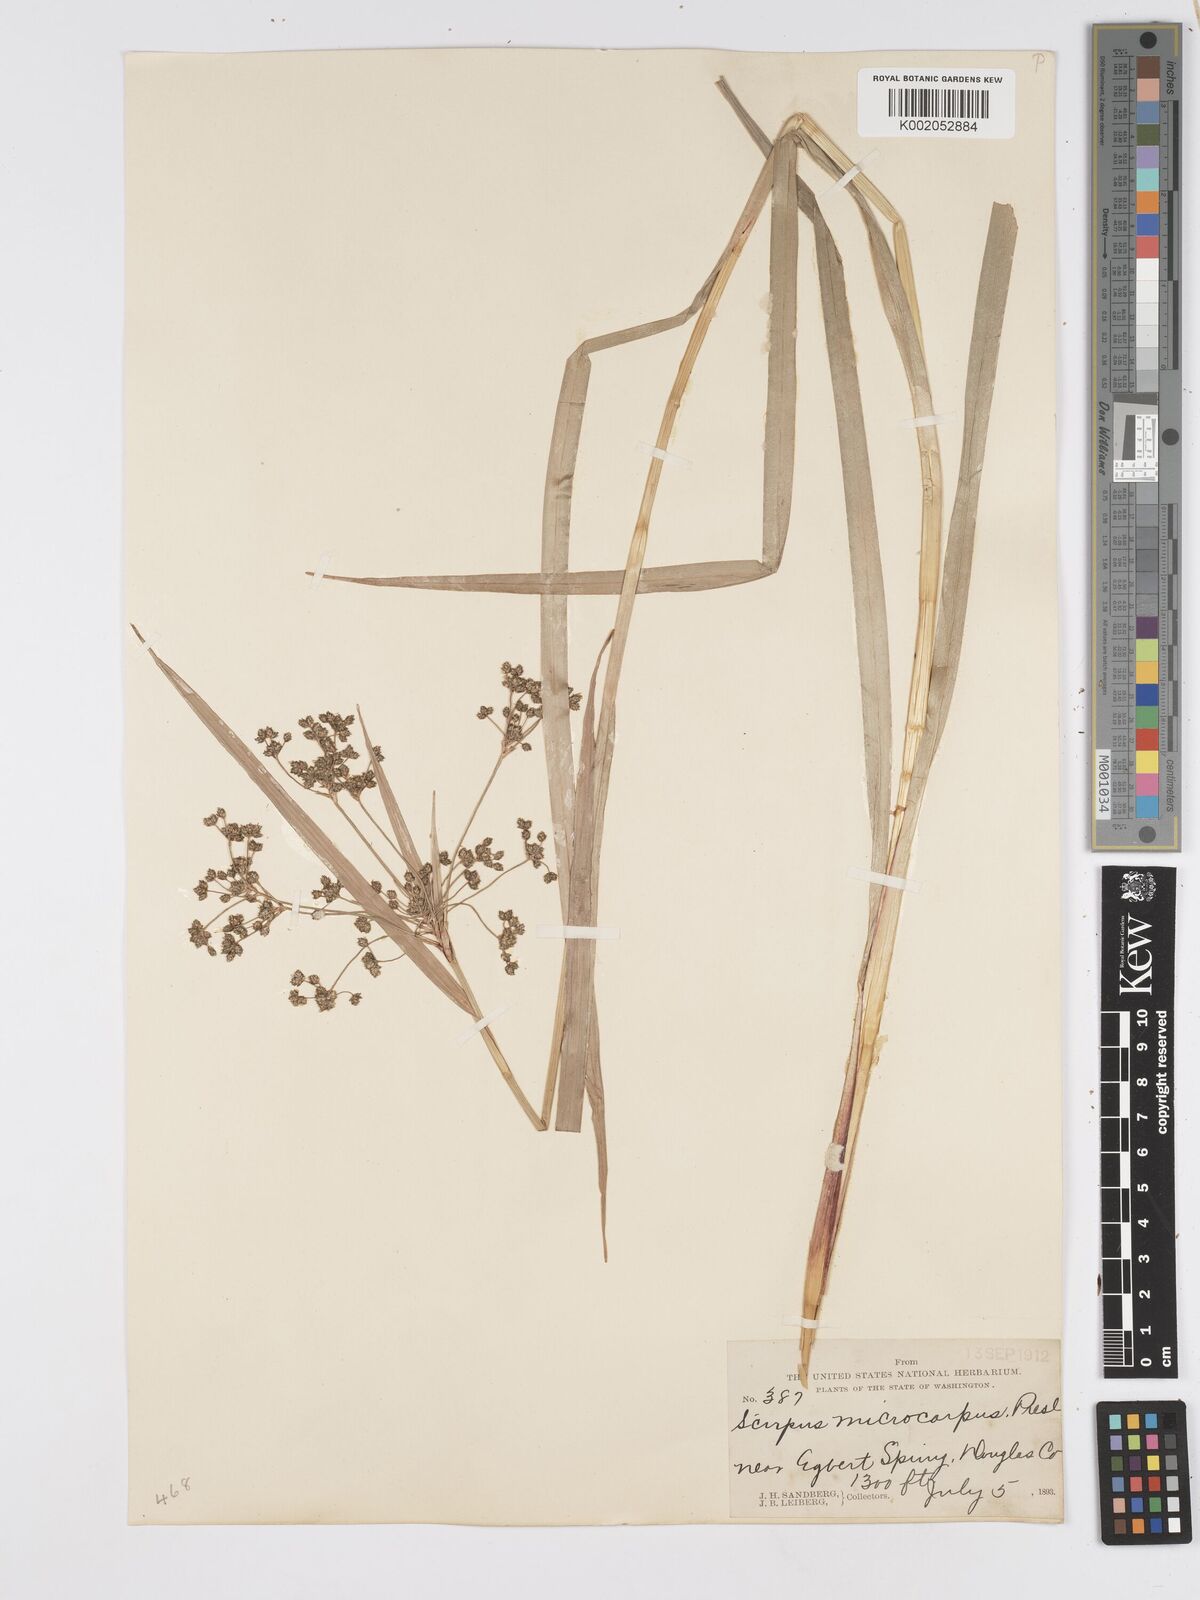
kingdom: Plantae
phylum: Tracheophyta
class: Liliopsida
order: Poales
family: Cyperaceae
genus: Scirpus
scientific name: Scirpus microcarpus
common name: Panicled bulrush
